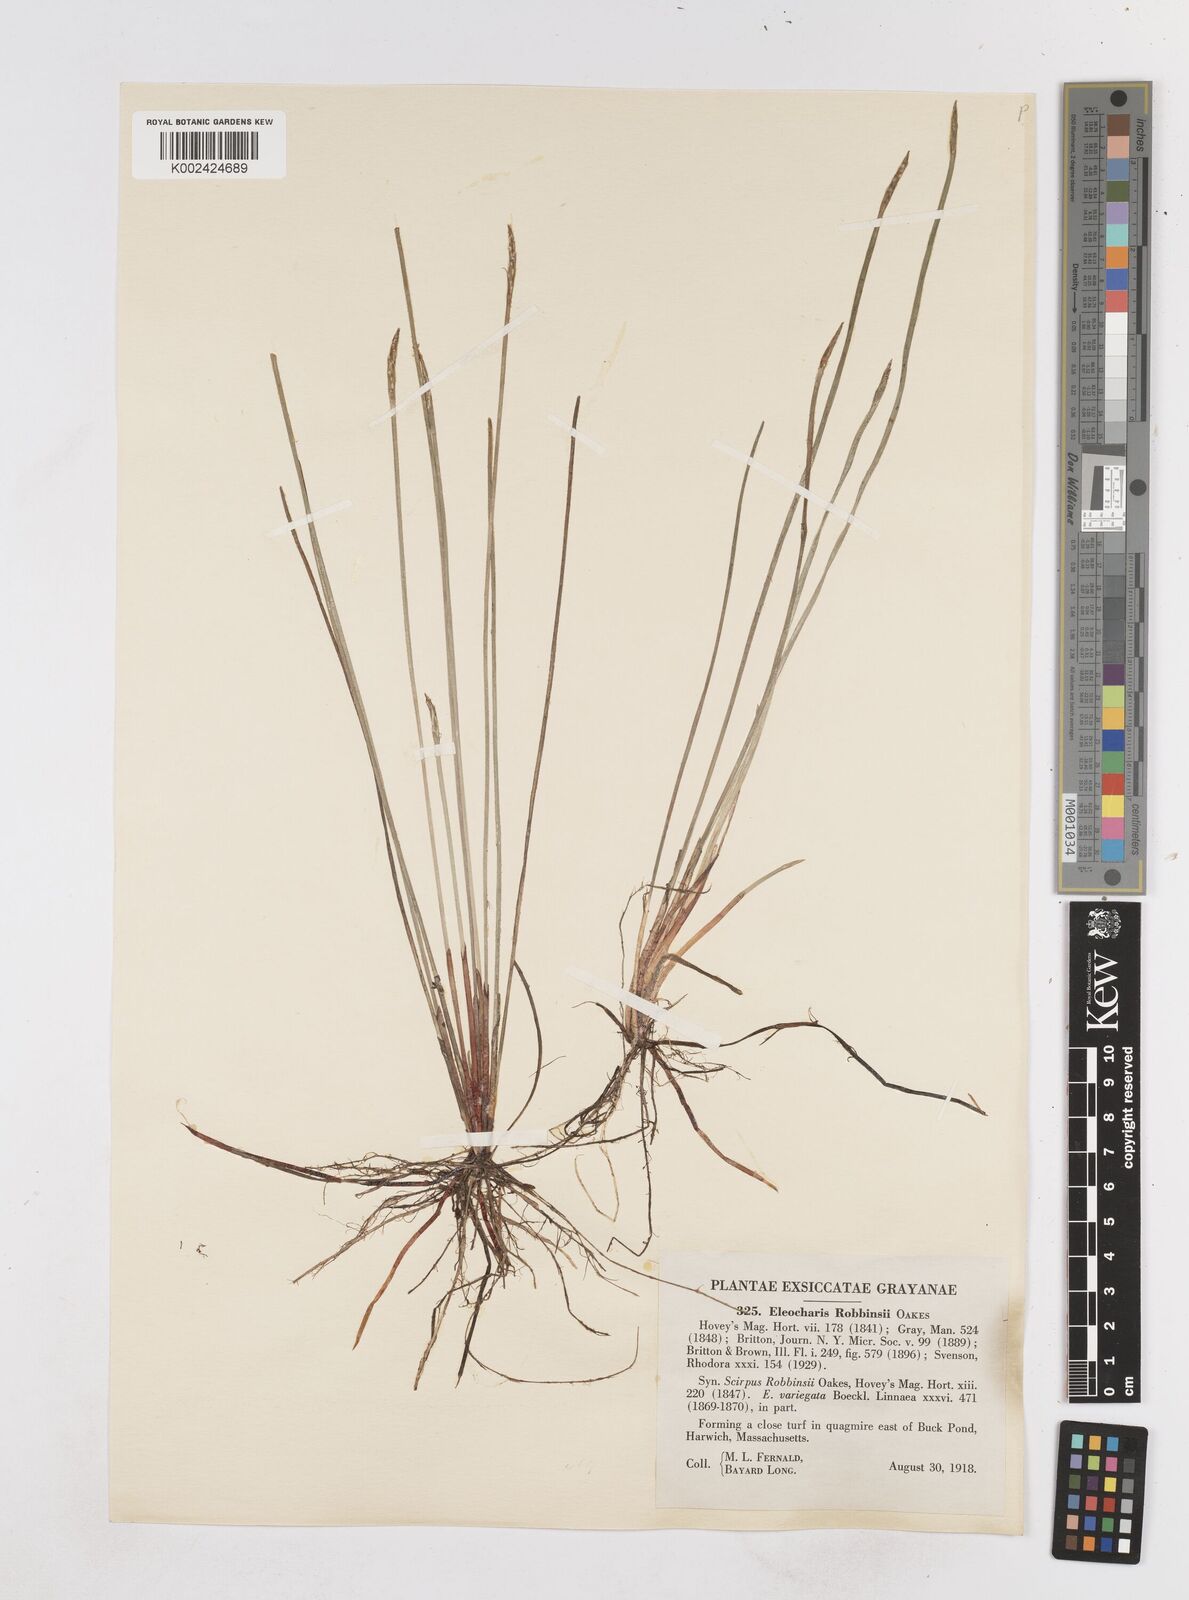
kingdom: Plantae
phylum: Tracheophyta
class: Liliopsida
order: Poales
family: Cyperaceae
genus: Eleocharis
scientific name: Eleocharis robbinsii
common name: Robbins' spikerush
